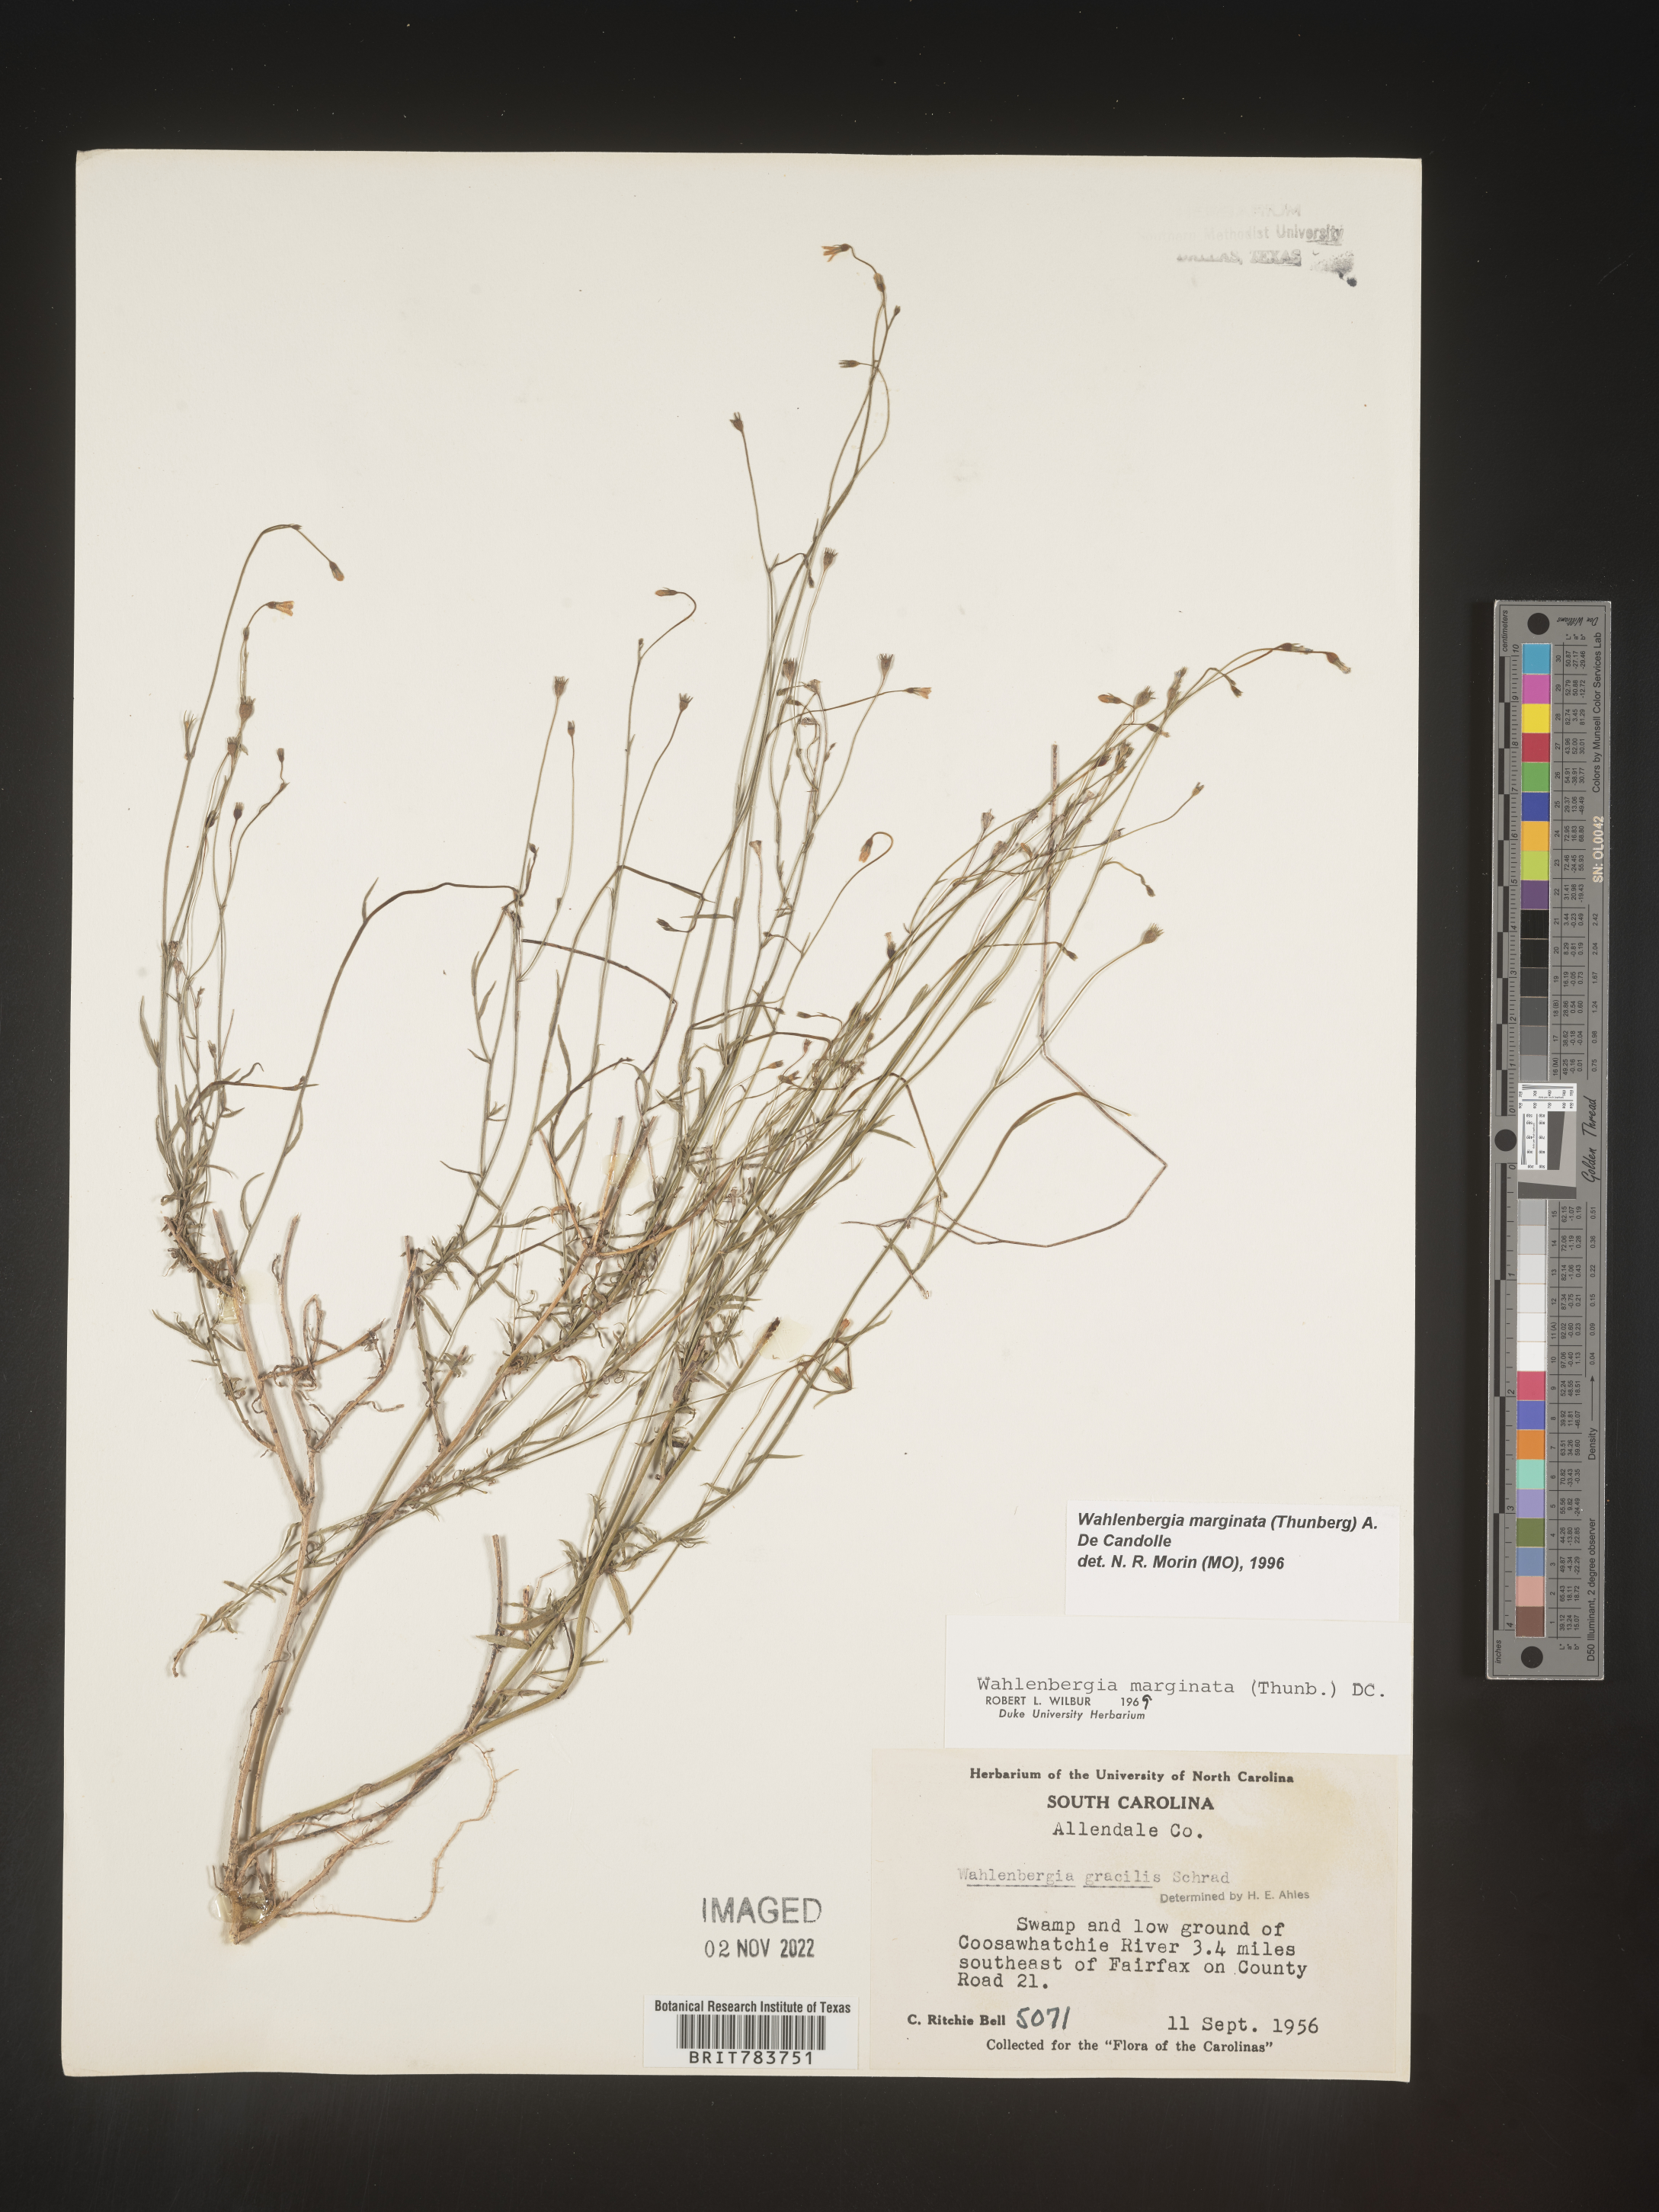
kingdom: Plantae
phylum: Tracheophyta
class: Magnoliopsida
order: Asterales
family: Campanulaceae
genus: Wahlenbergia
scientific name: Wahlenbergia marginata
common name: Southern rockbell
